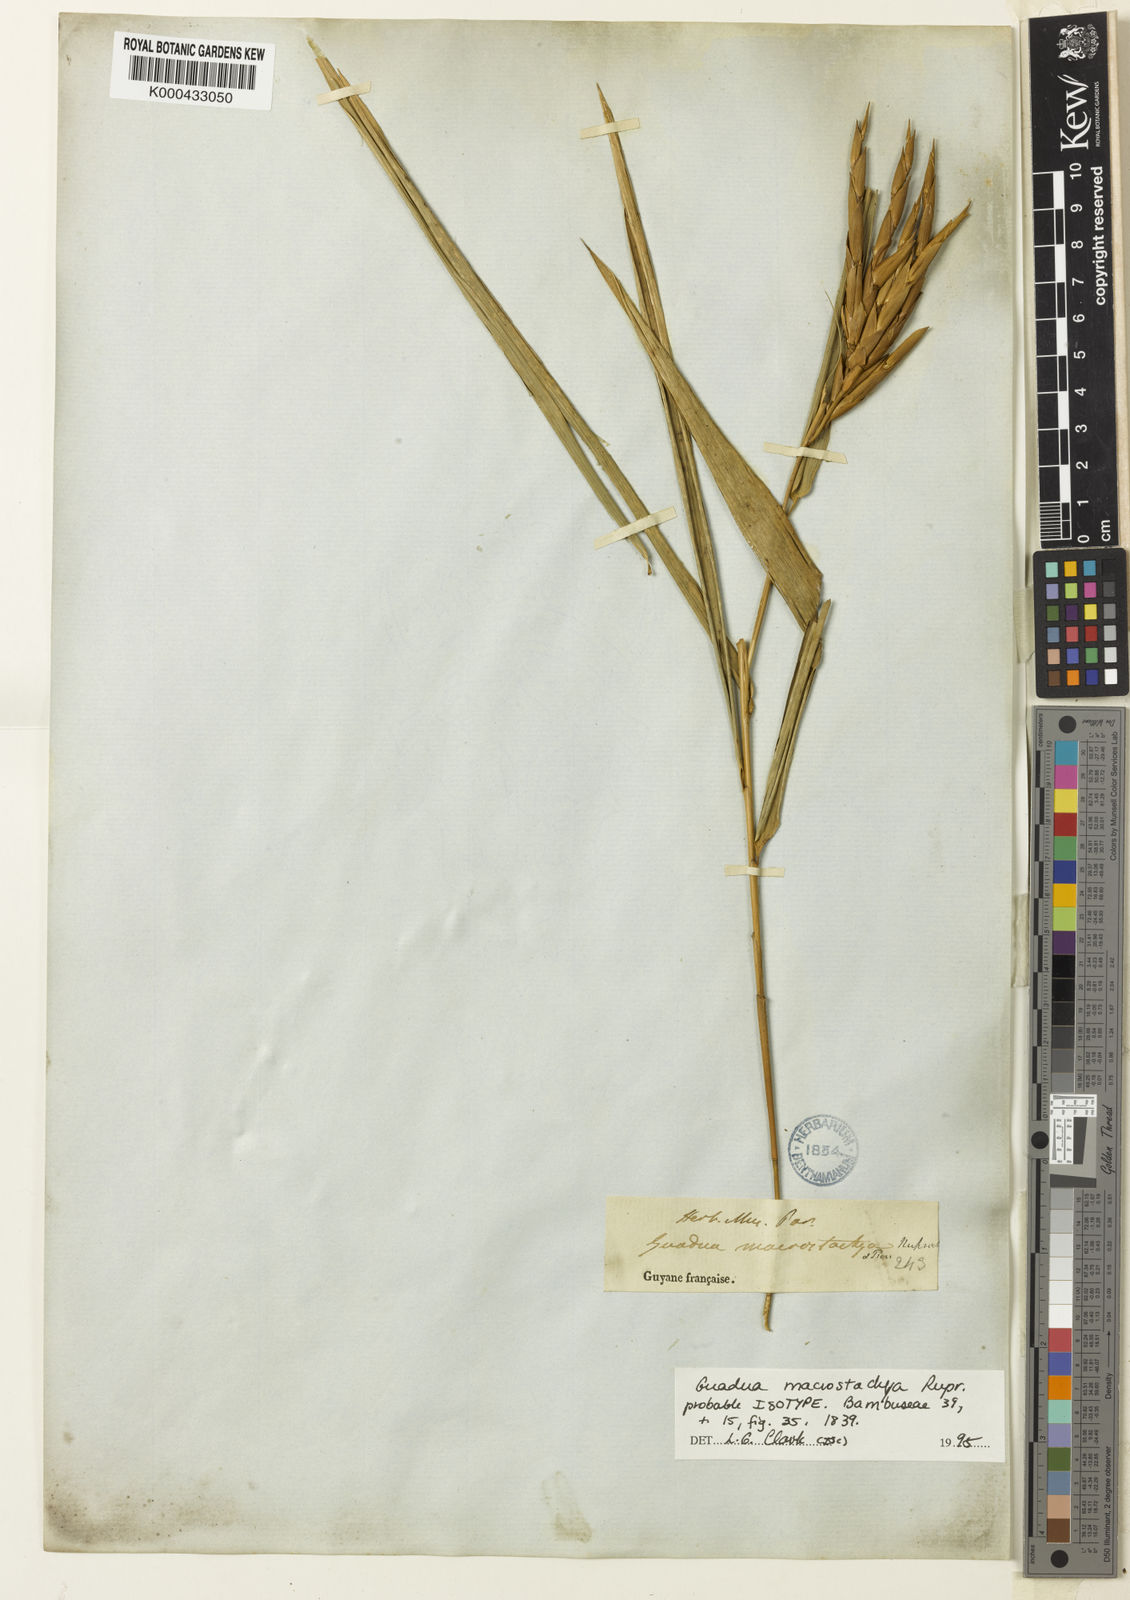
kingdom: Plantae
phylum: Tracheophyta
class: Liliopsida
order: Poales
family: Poaceae
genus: Guadua
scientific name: Guadua macrostachya
